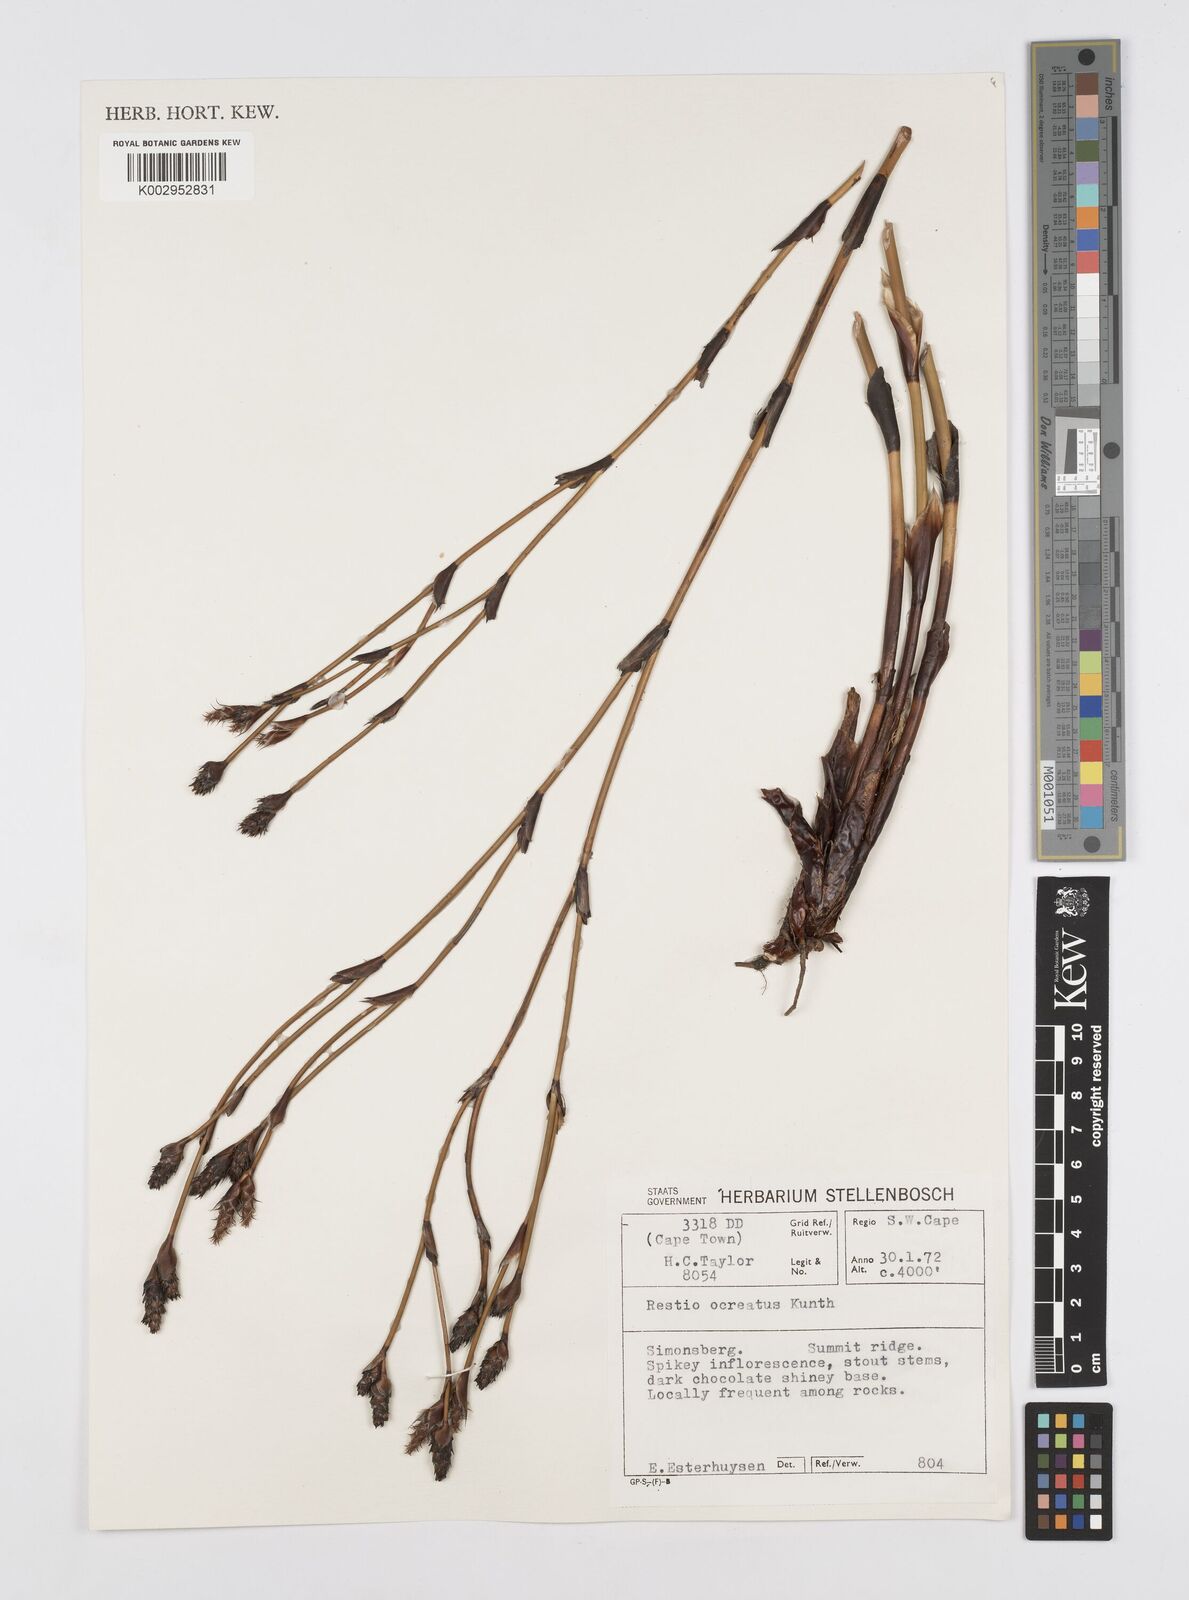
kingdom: Plantae
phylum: Tracheophyta
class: Liliopsida
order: Poales
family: Restionaceae
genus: Restio
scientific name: Restio ocreatus
